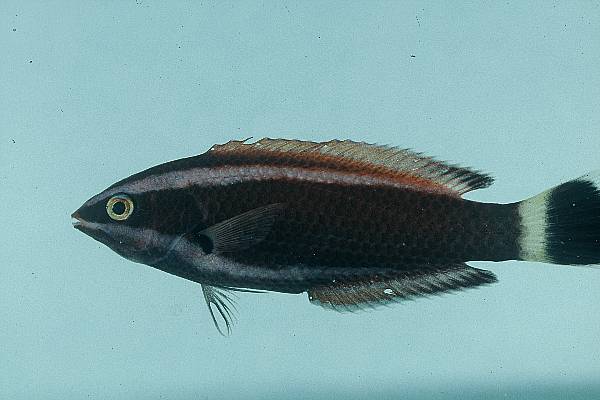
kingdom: Animalia
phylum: Chordata
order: Perciformes
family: Labridae
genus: Pseudodax
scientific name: Pseudodax moluccanus
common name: Chiseltooth wrasse
